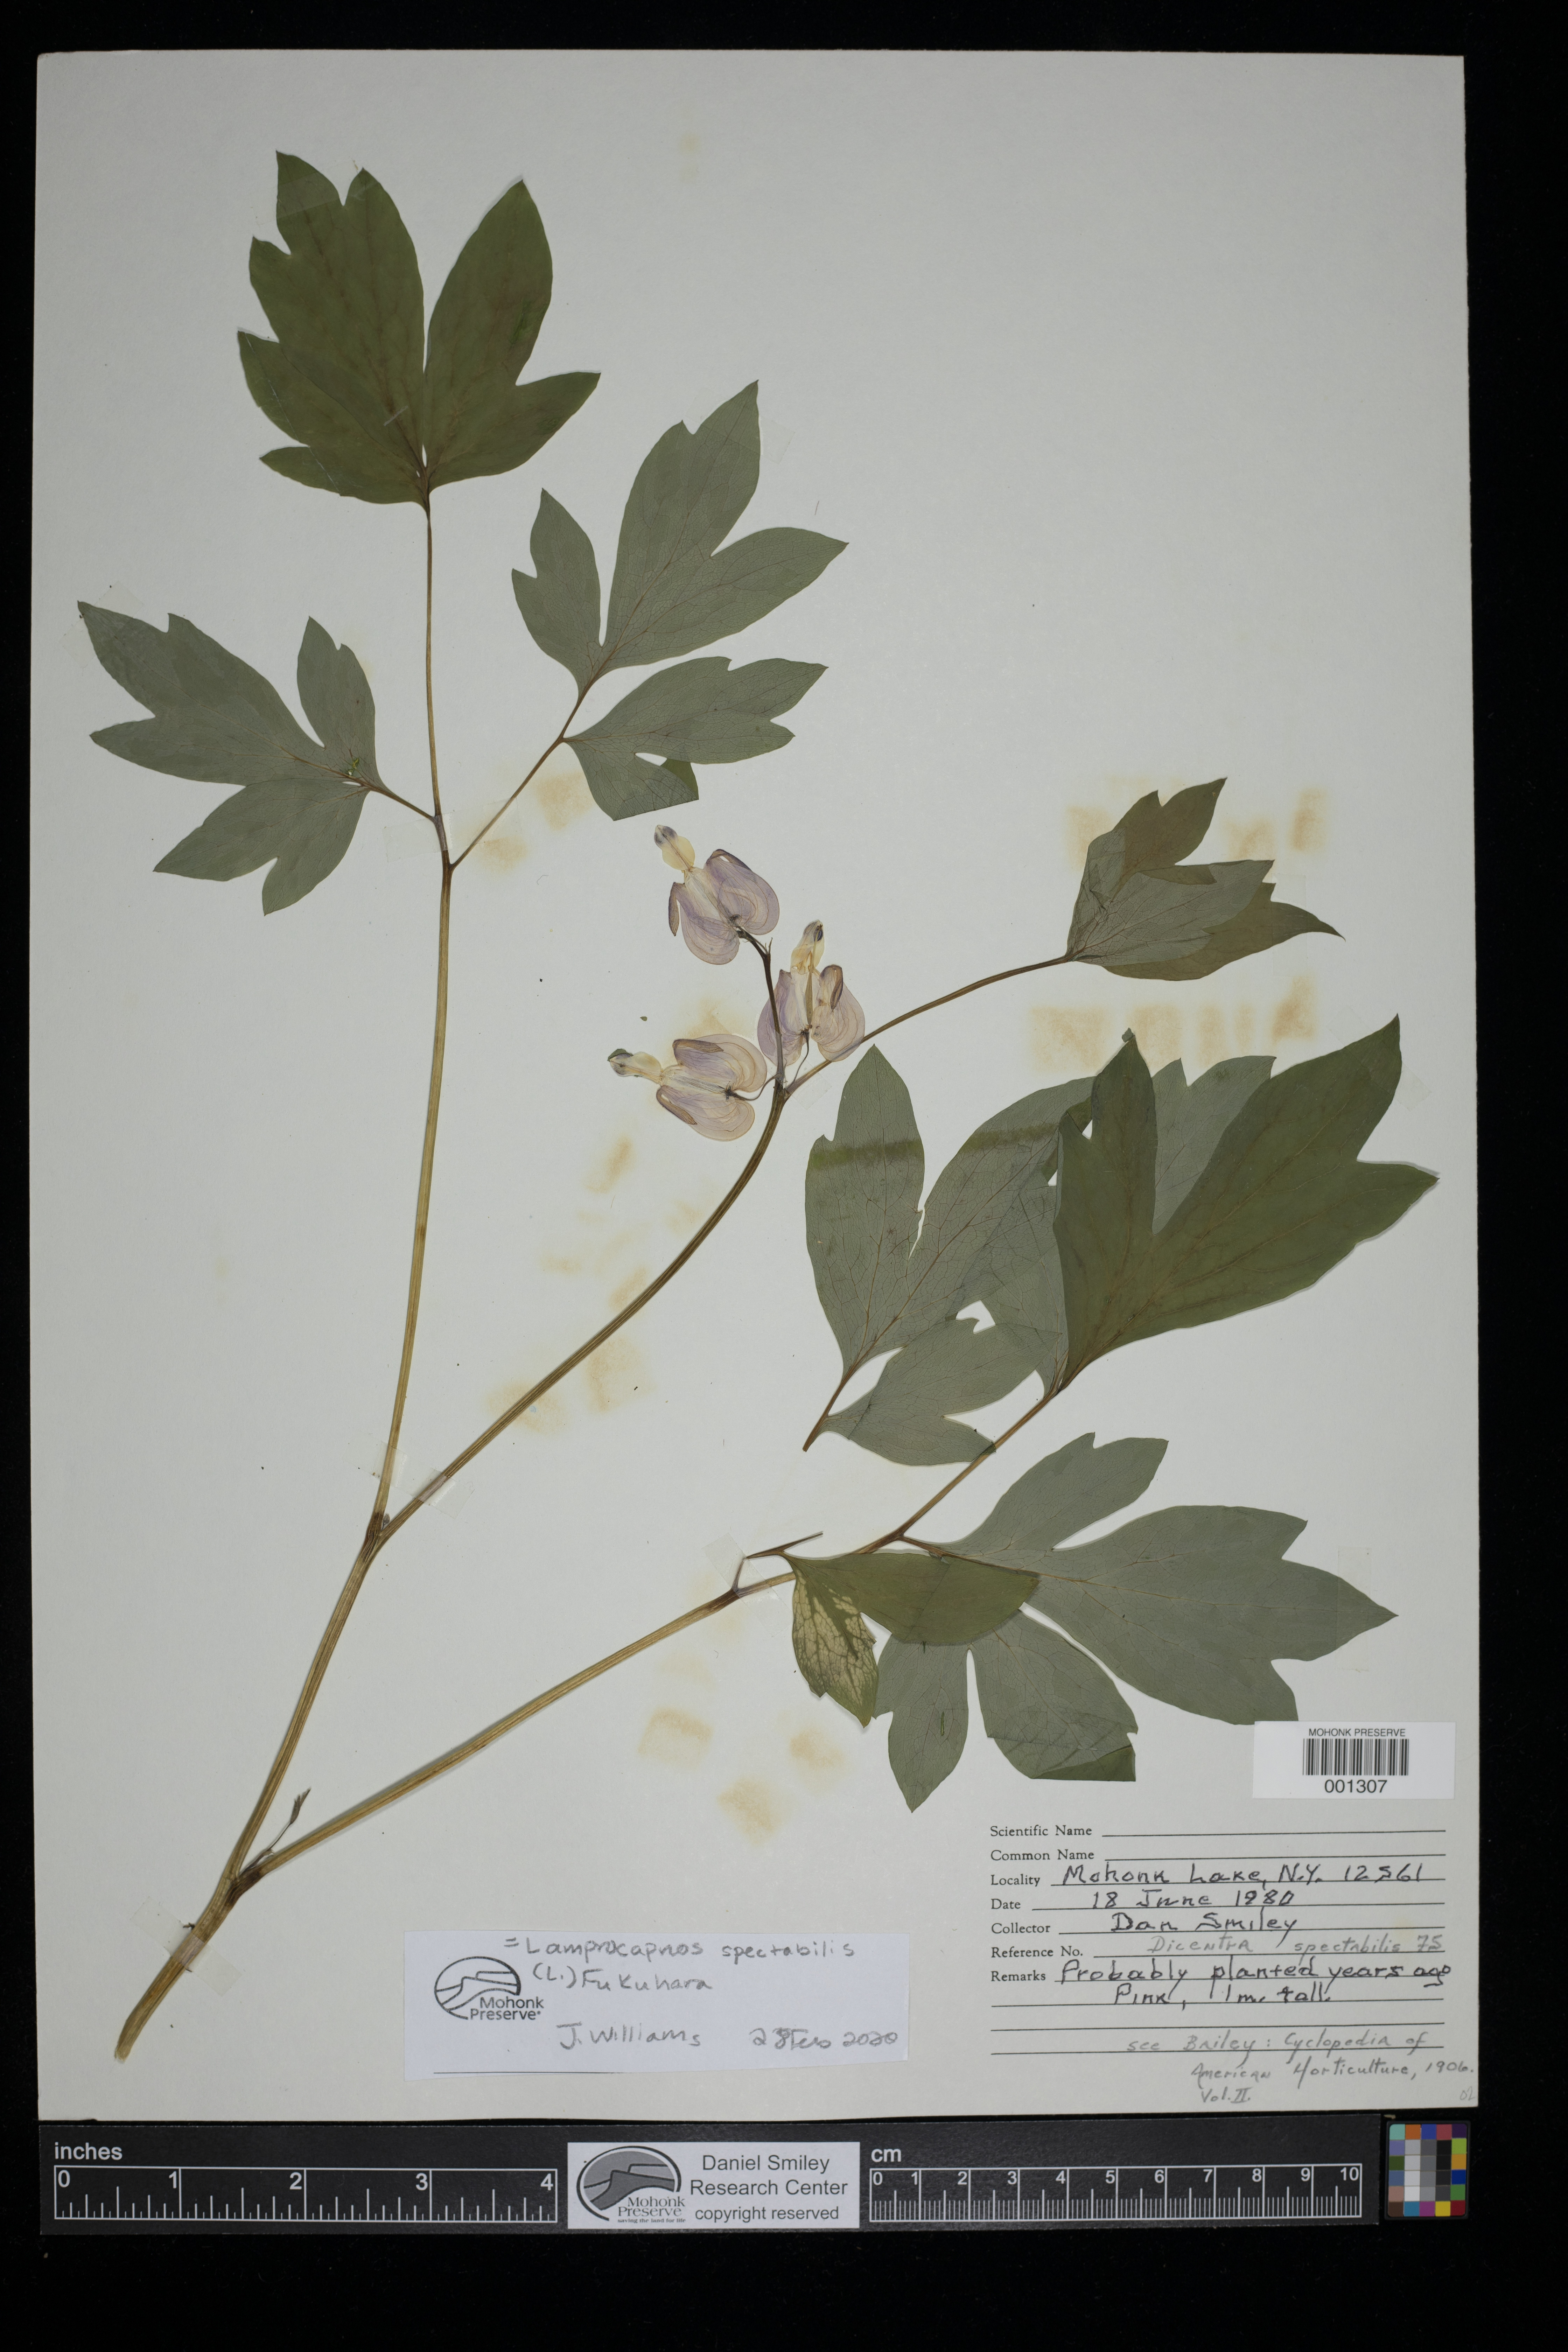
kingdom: Plantae
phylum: Tracheophyta
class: Magnoliopsida
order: Ranunculales
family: Papaveraceae
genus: Lamprocapnos
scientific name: Lamprocapnos spectabilis
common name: Asian bleeding-heart
